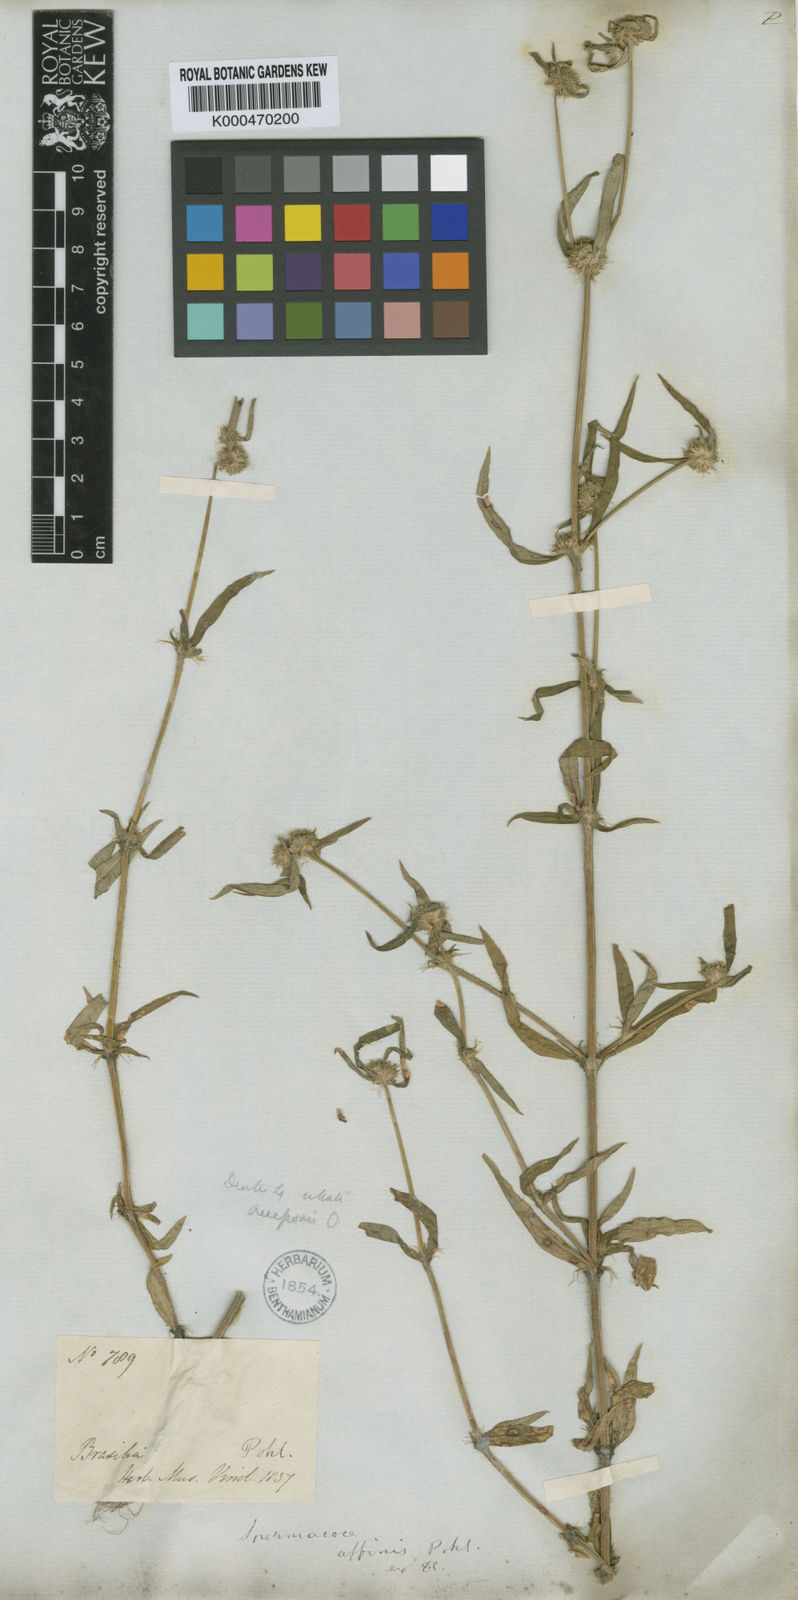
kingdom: Plantae
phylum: Tracheophyta
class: Magnoliopsida
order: Gentianales
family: Rubiaceae
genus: Spermacoce
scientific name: Spermacoce eryngioides
